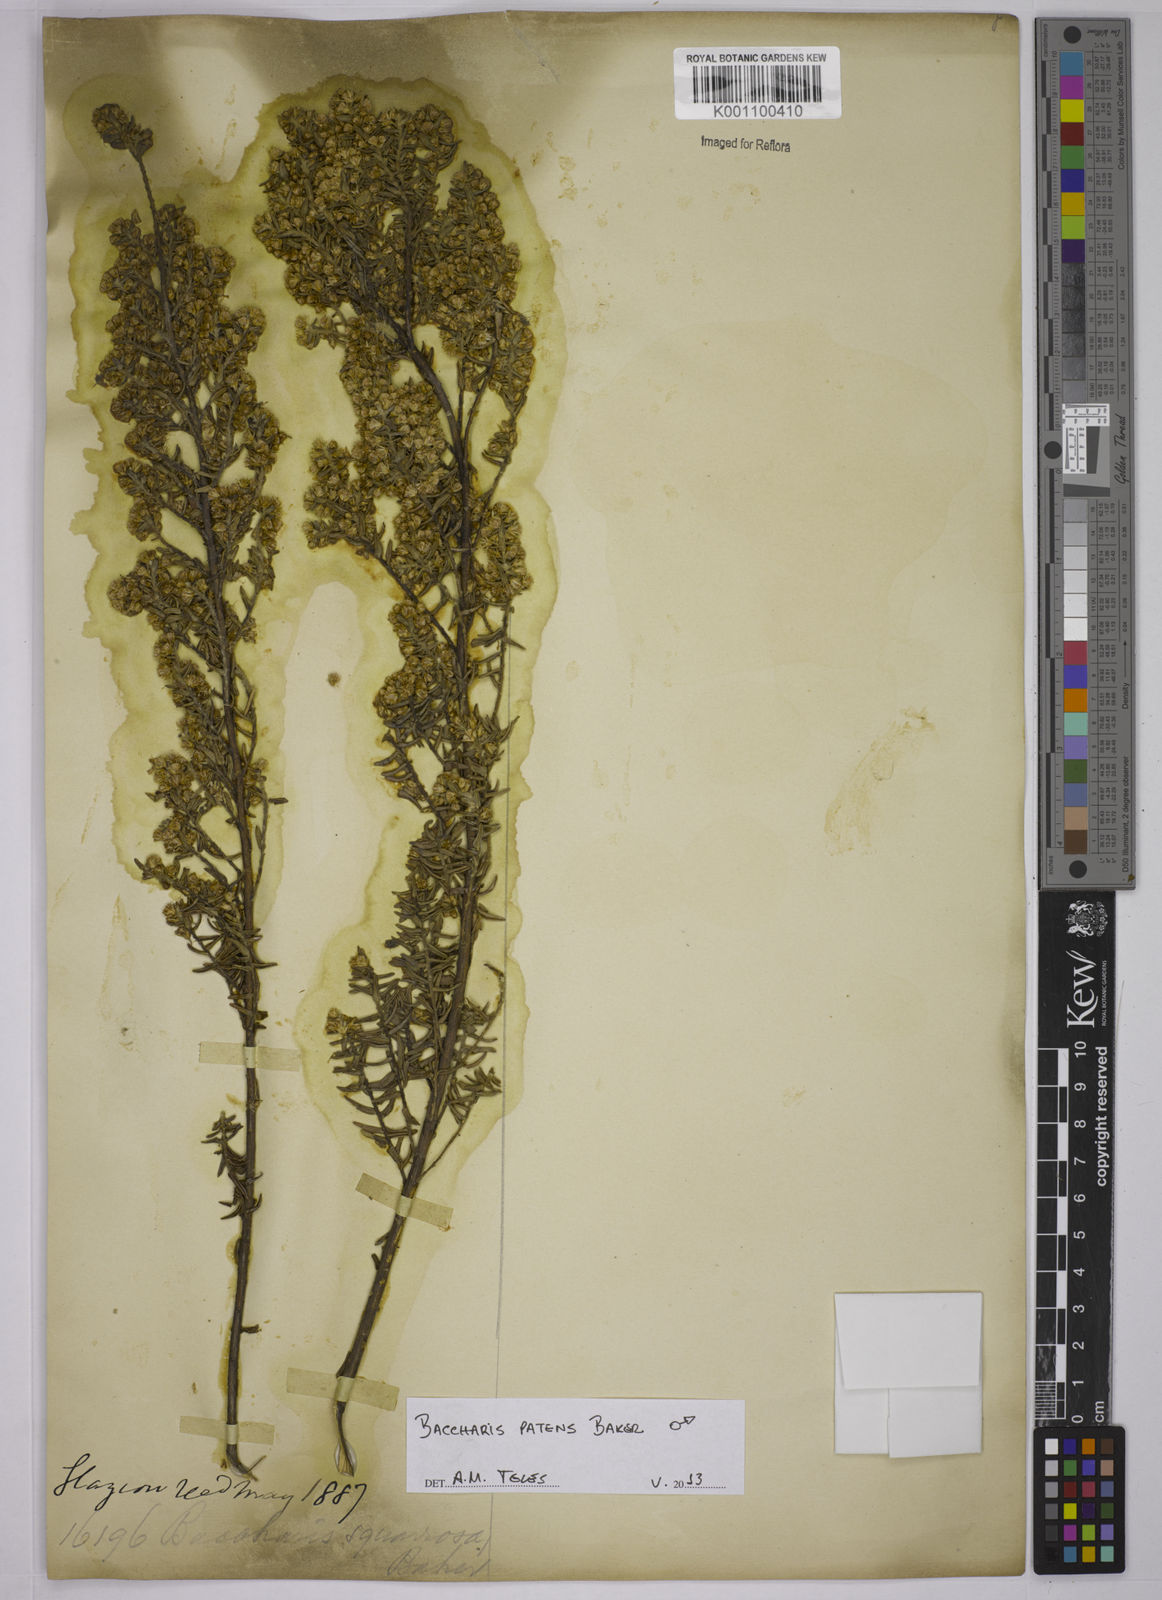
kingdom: Plantae
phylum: Tracheophyta
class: Magnoliopsida
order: Asterales
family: Asteraceae
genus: Baccharis
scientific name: Baccharis patens
